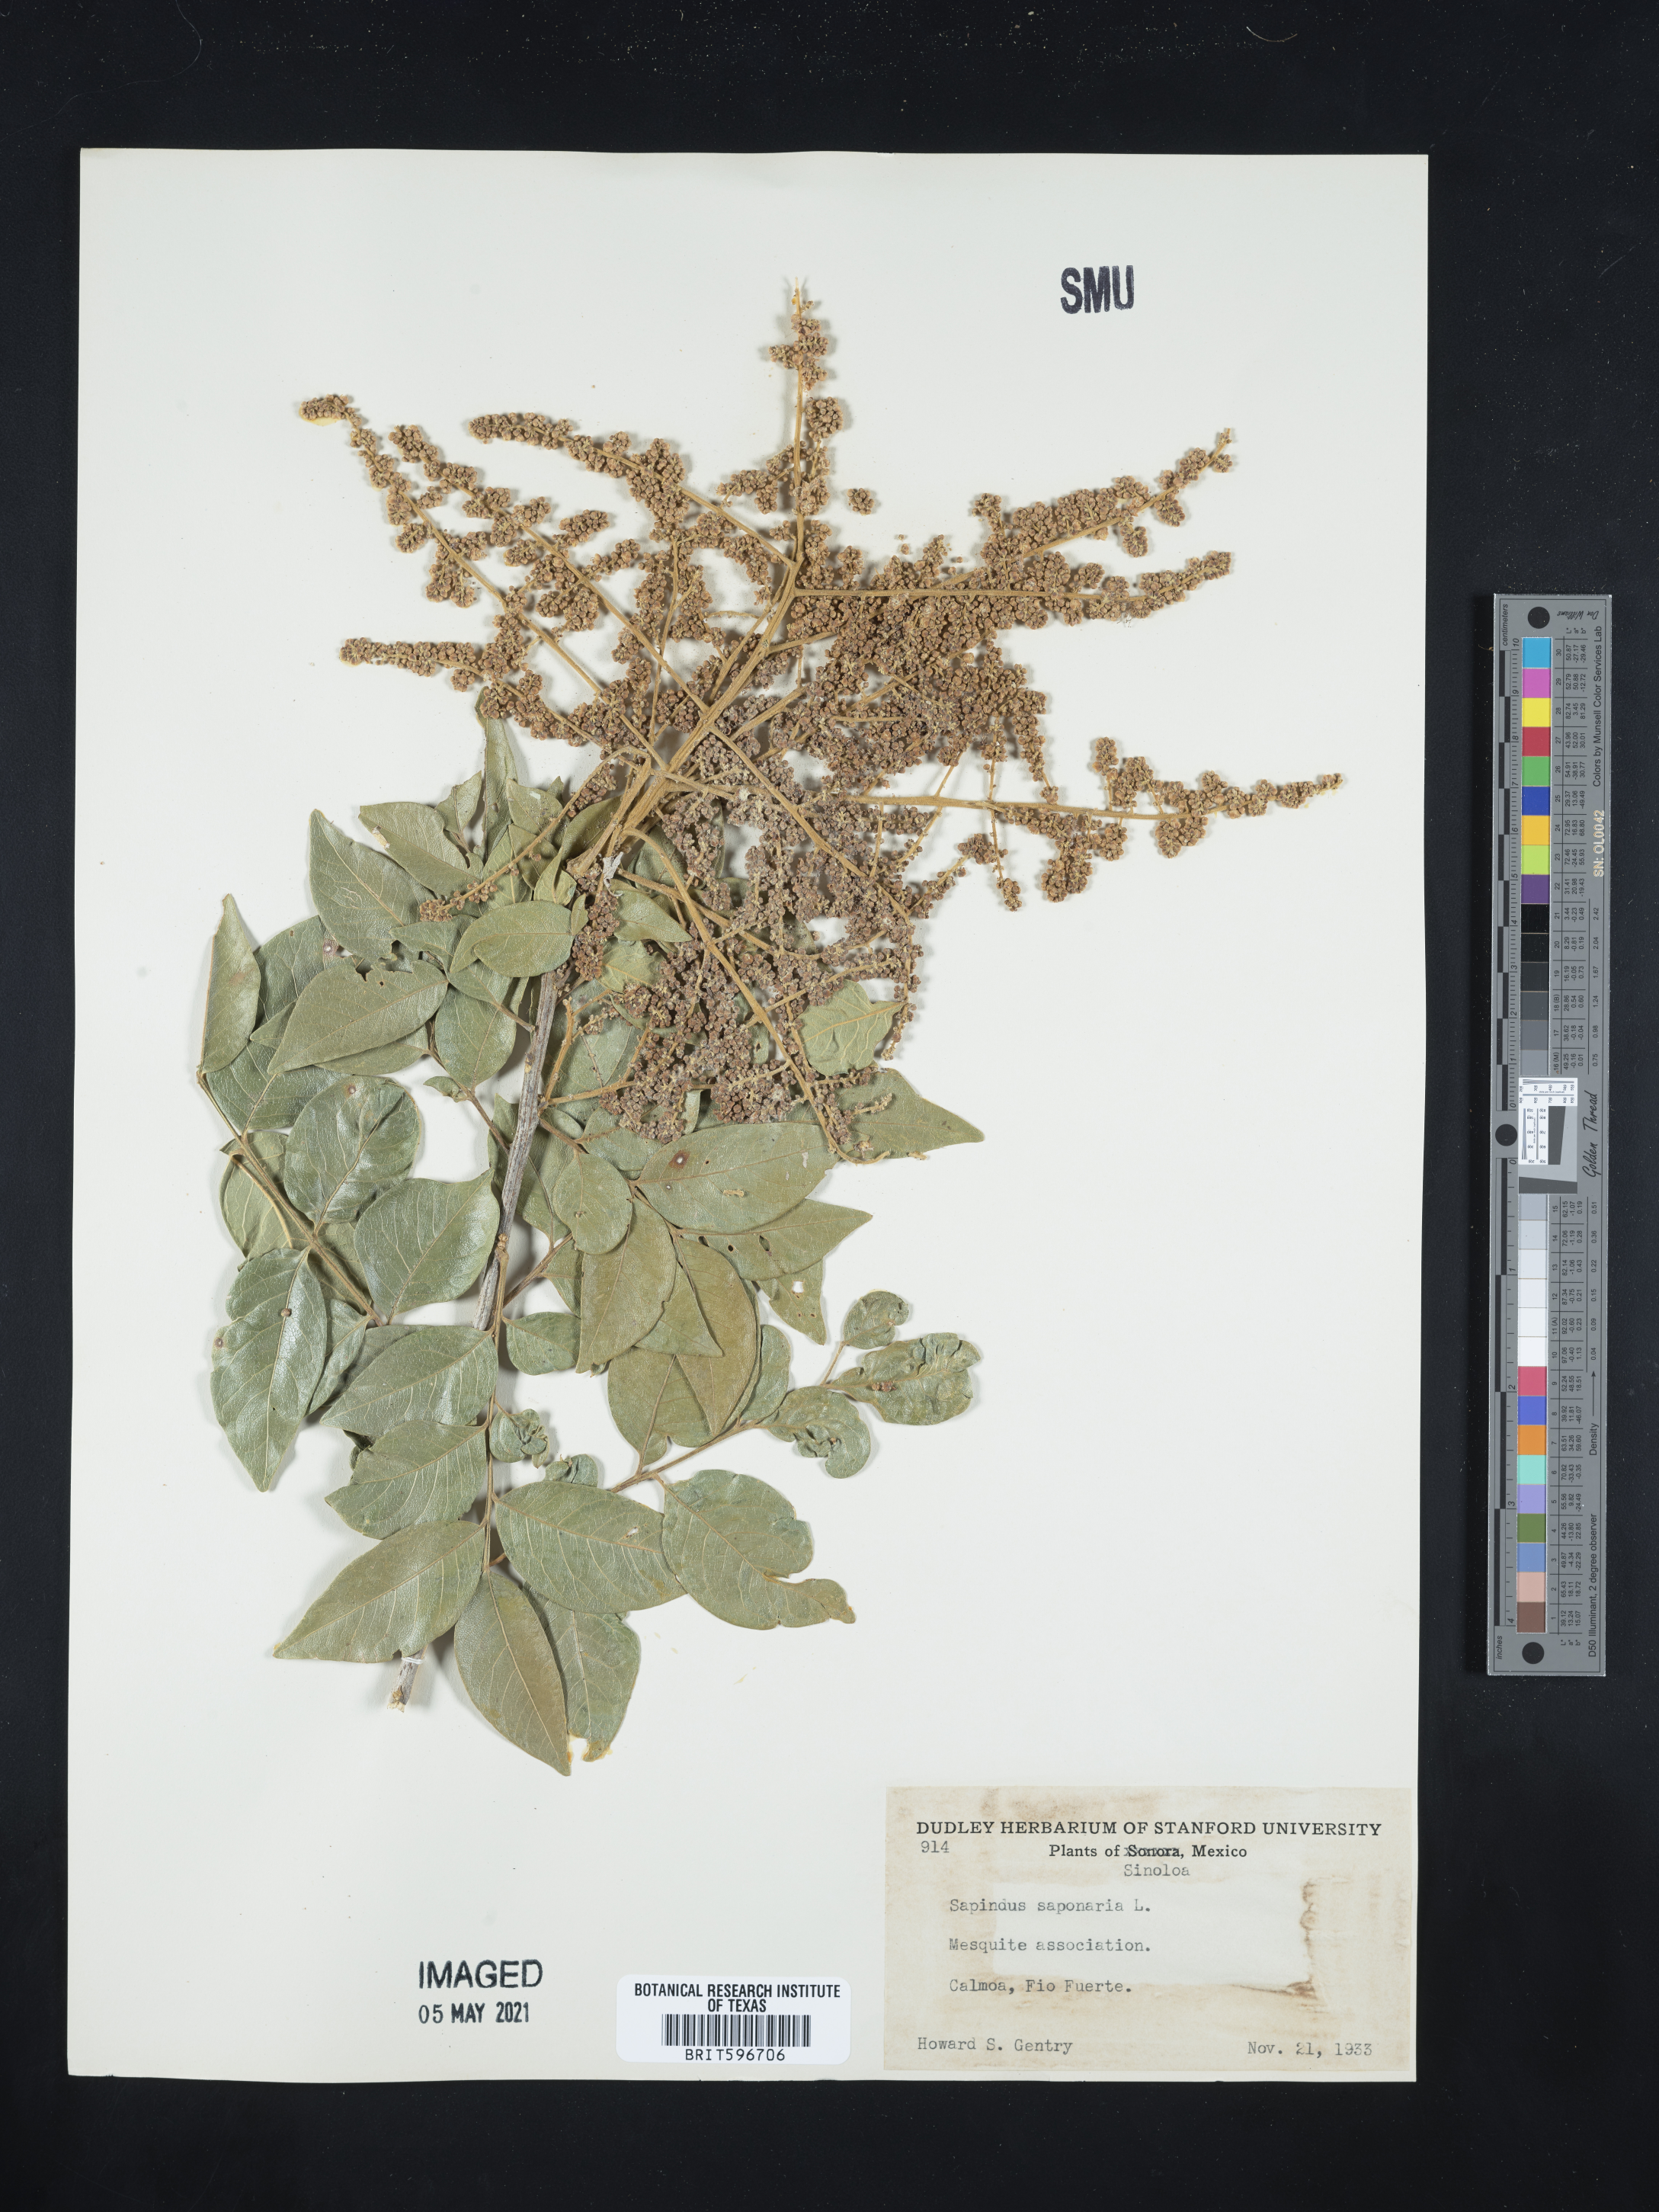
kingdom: Plantae
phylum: Tracheophyta
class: Magnoliopsida
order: Sapindales
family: Sapindaceae
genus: Sapindus
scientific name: Sapindus saponaria
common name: Wingleaf soapberry
